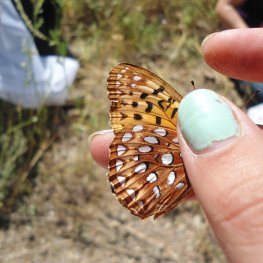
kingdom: Animalia
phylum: Arthropoda
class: Insecta
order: Lepidoptera
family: Nymphalidae
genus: Speyeria
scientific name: Speyeria aphrodite
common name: Aphrodite Fritillary
